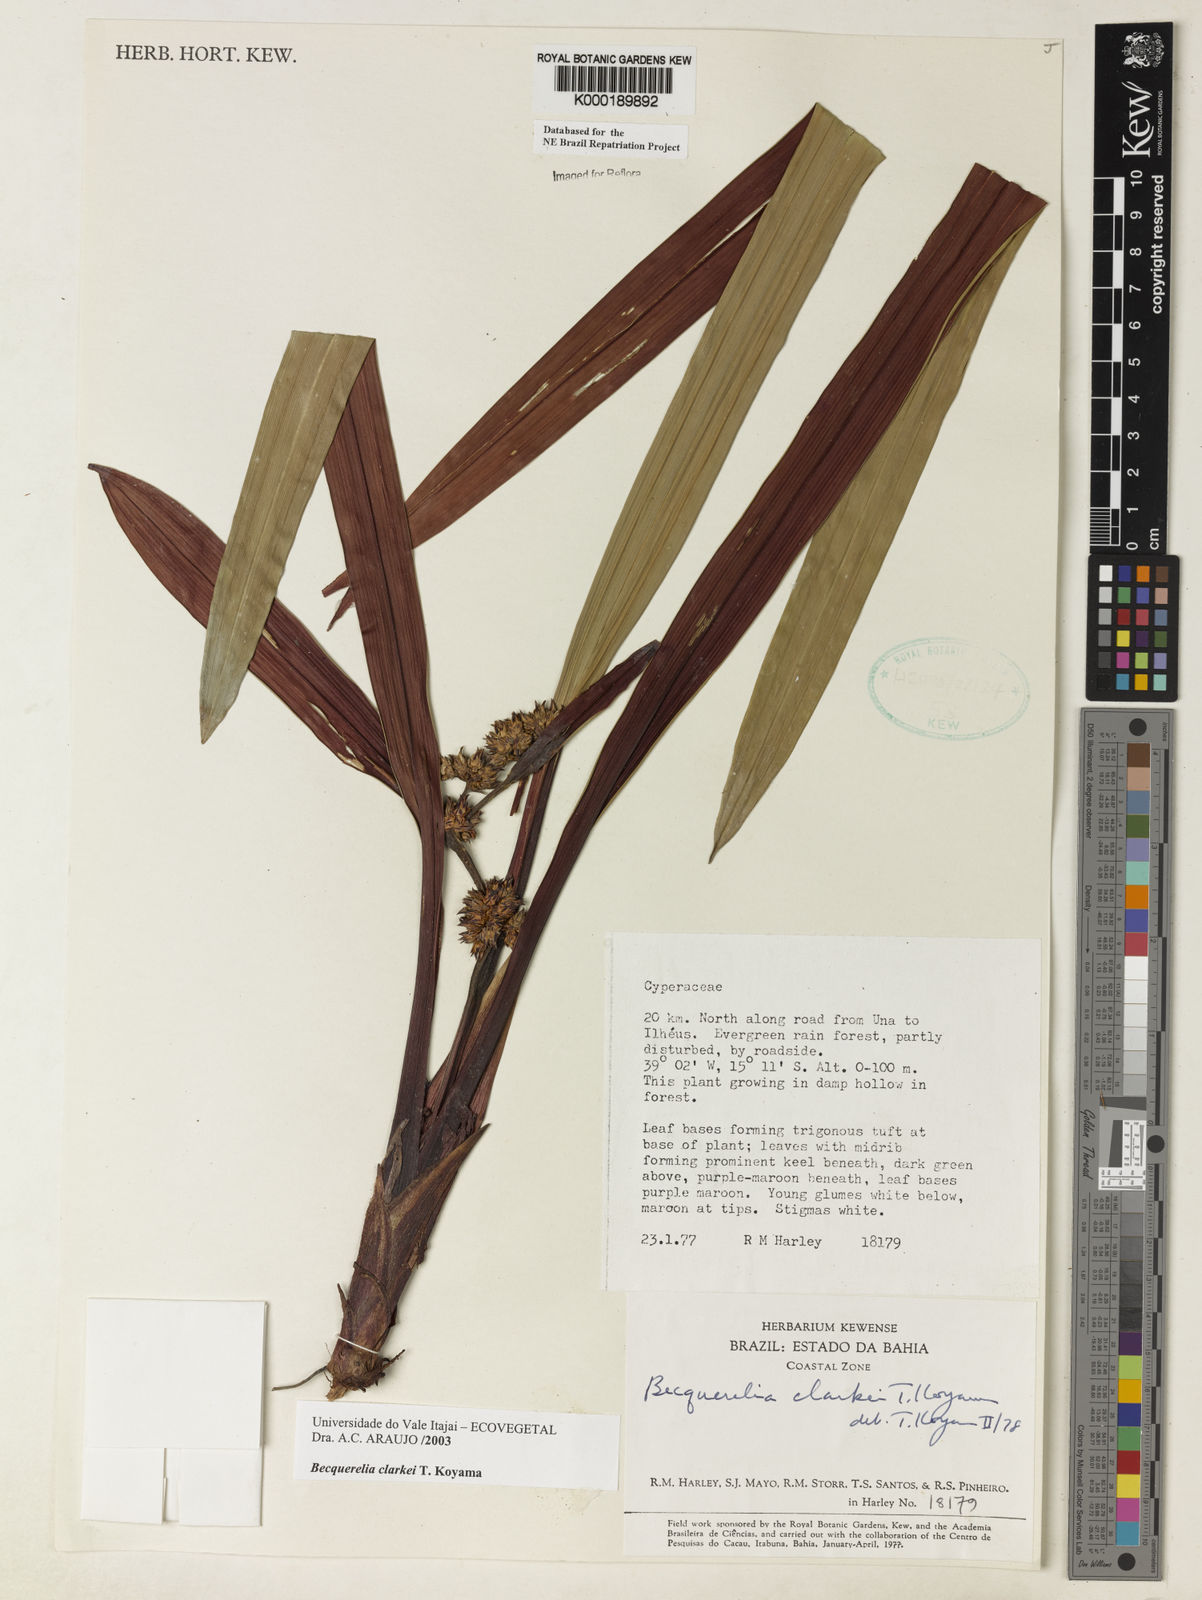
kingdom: Plantae
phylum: Tracheophyta
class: Liliopsida
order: Poales
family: Cyperaceae
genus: Becquerelia
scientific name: Becquerelia clarkei
